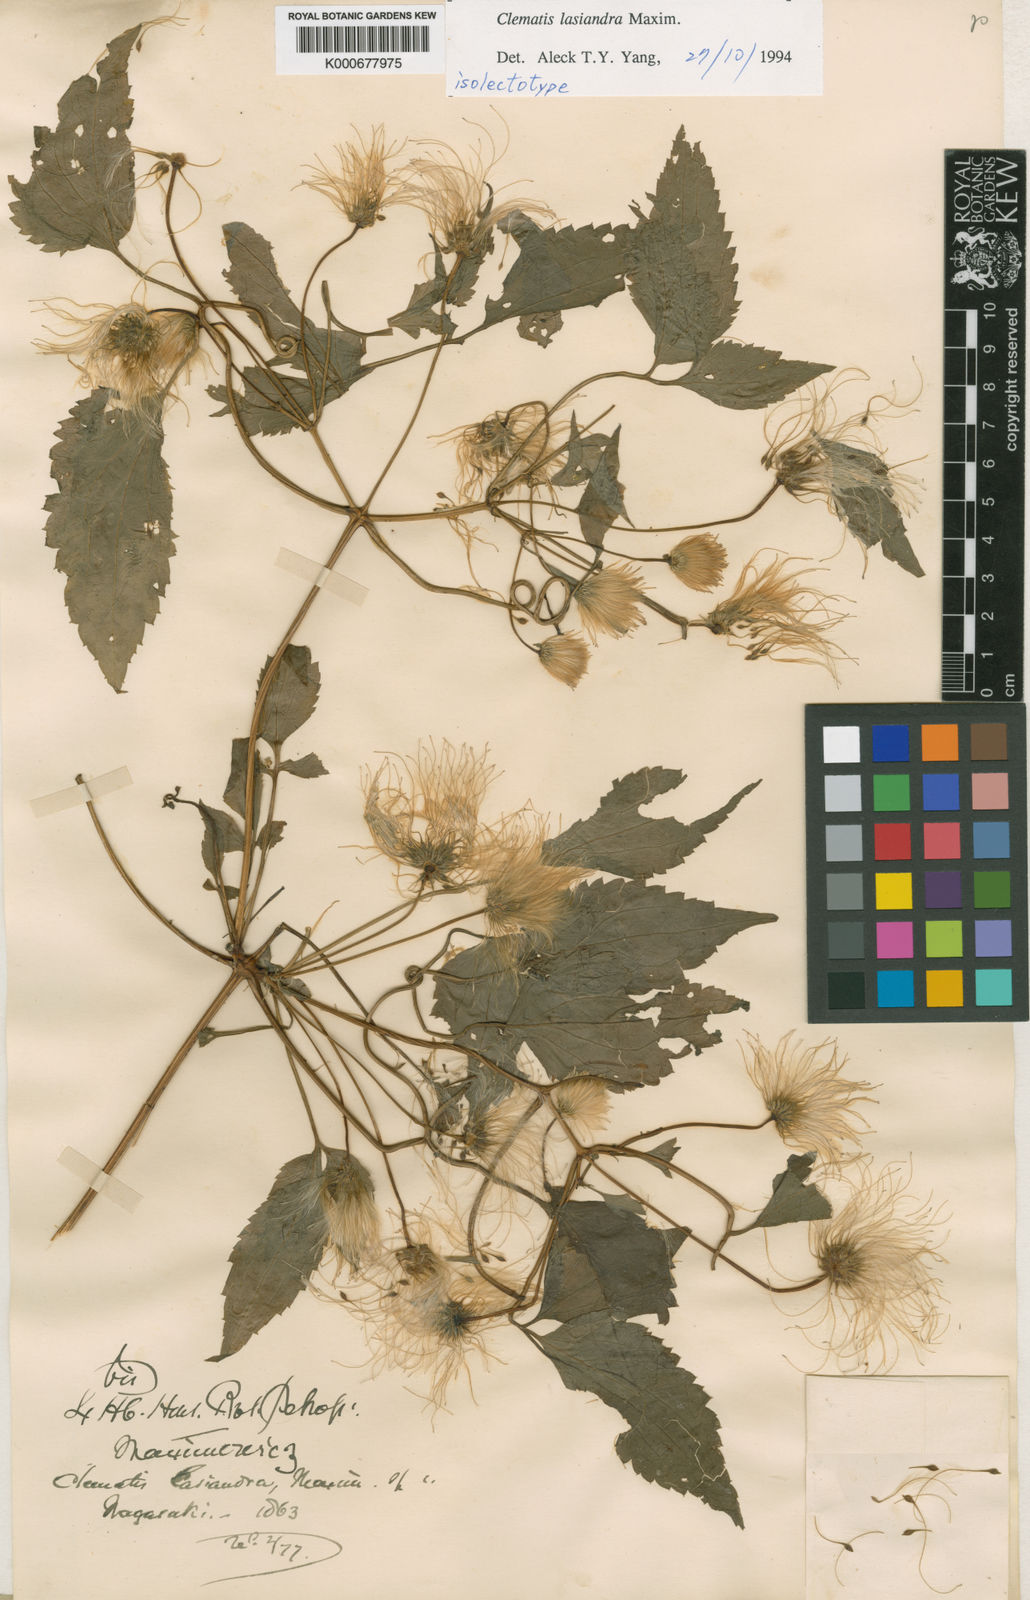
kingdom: Plantae
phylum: Tracheophyta
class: Magnoliopsida
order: Ranunculales
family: Ranunculaceae
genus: Clematis
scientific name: Clematis lasiandra
